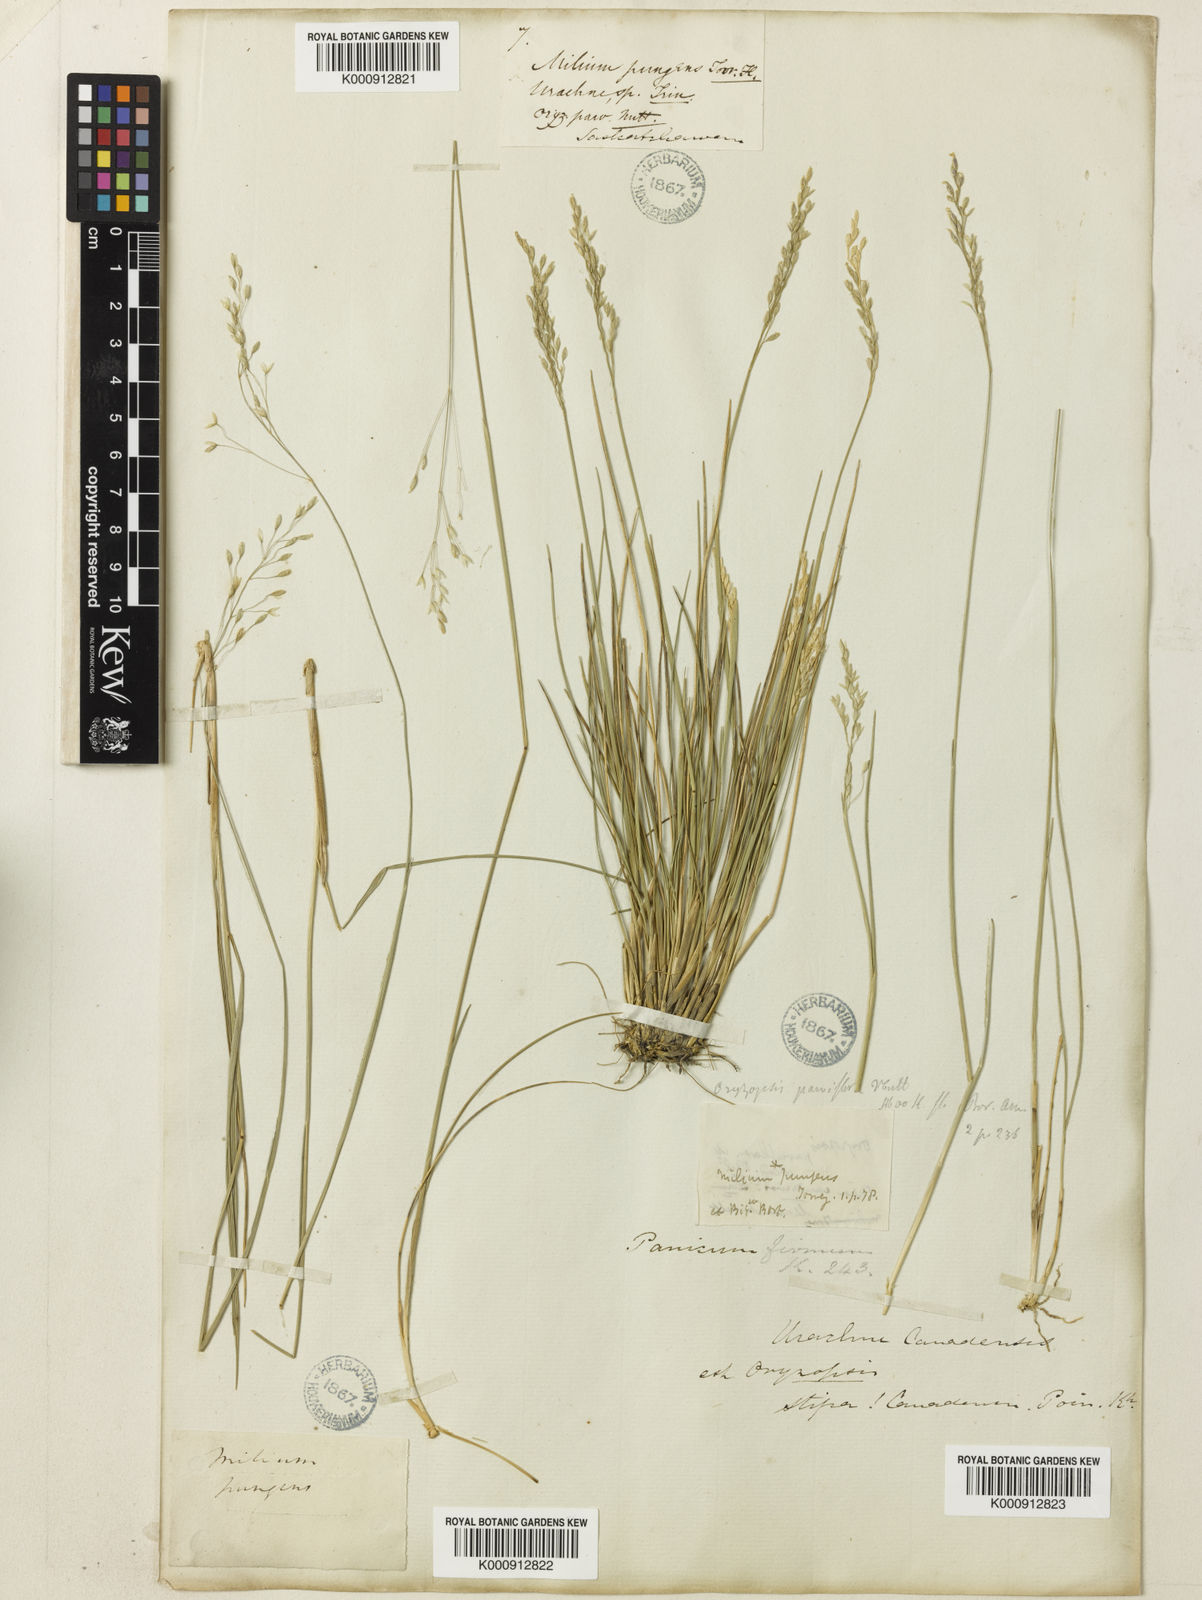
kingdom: Plantae
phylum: Tracheophyta
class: Liliopsida
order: Poales
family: Poaceae
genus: Piptatheropsis
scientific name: Piptatheropsis pungens
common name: Northern ricegrass
